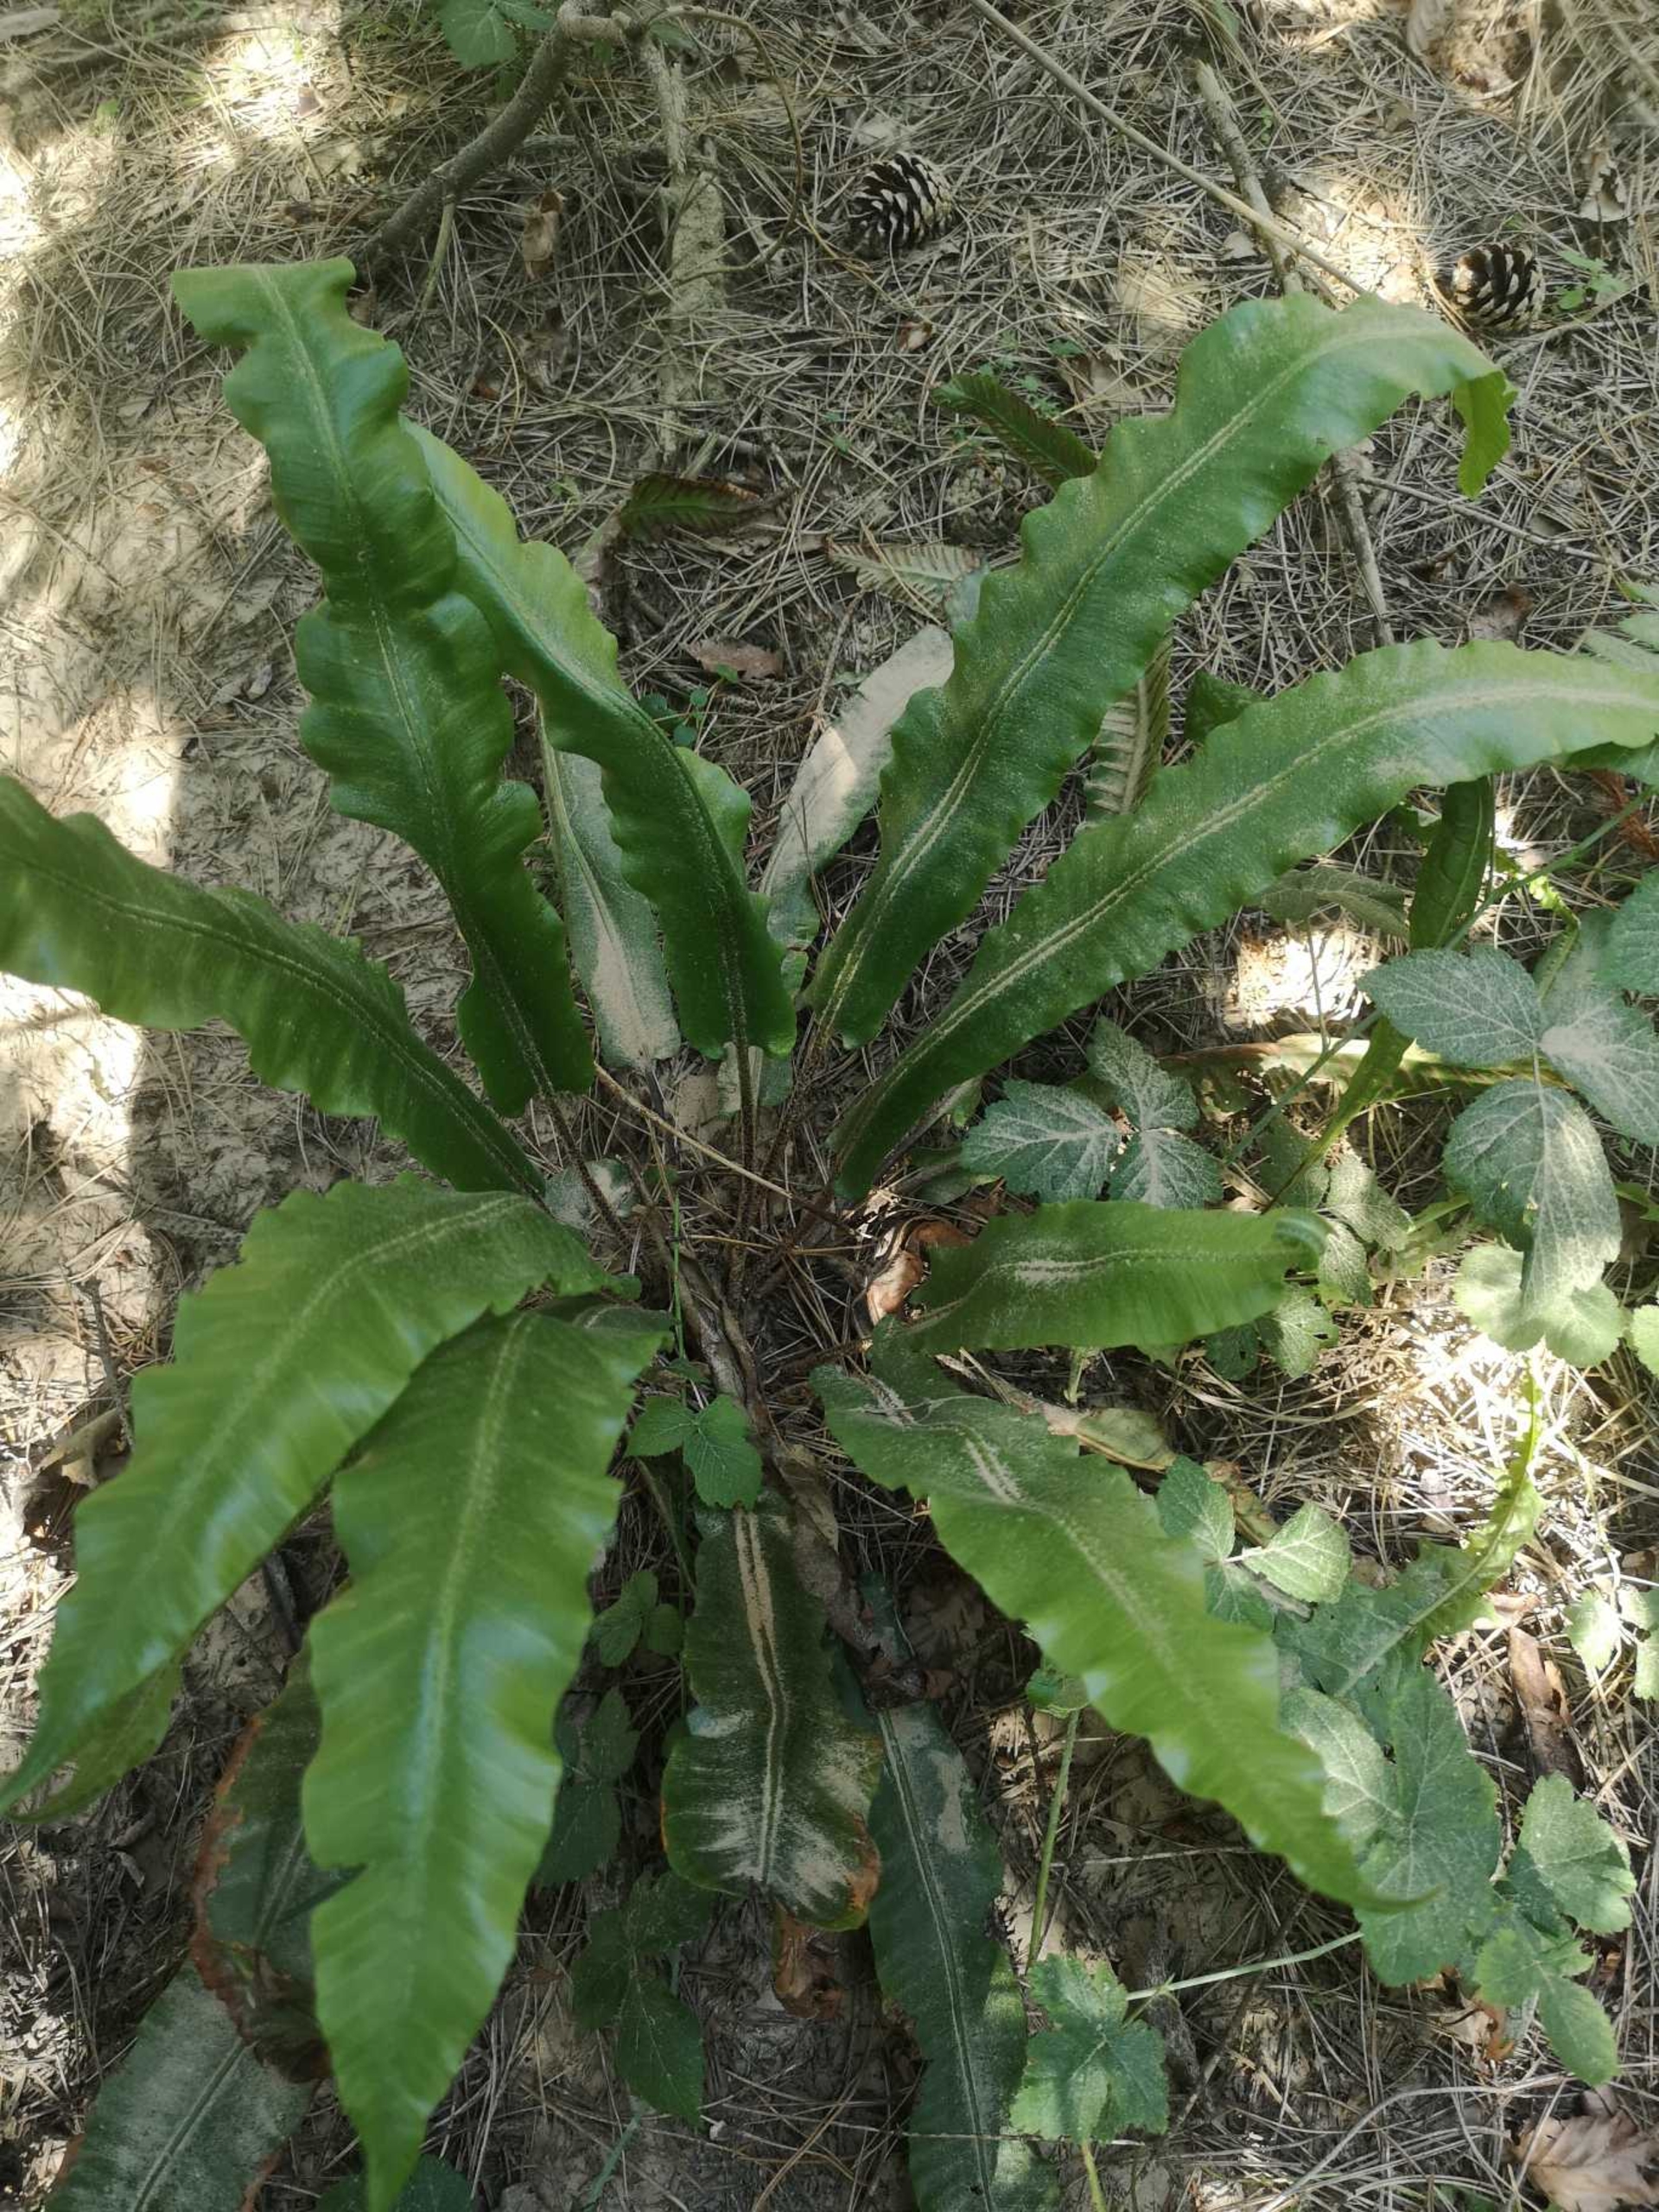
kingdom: Plantae
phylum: Tracheophyta
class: Polypodiopsida
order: Polypodiales
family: Aspleniaceae
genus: Asplenium
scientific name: Asplenium scolopendrium
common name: Hjortetunge
